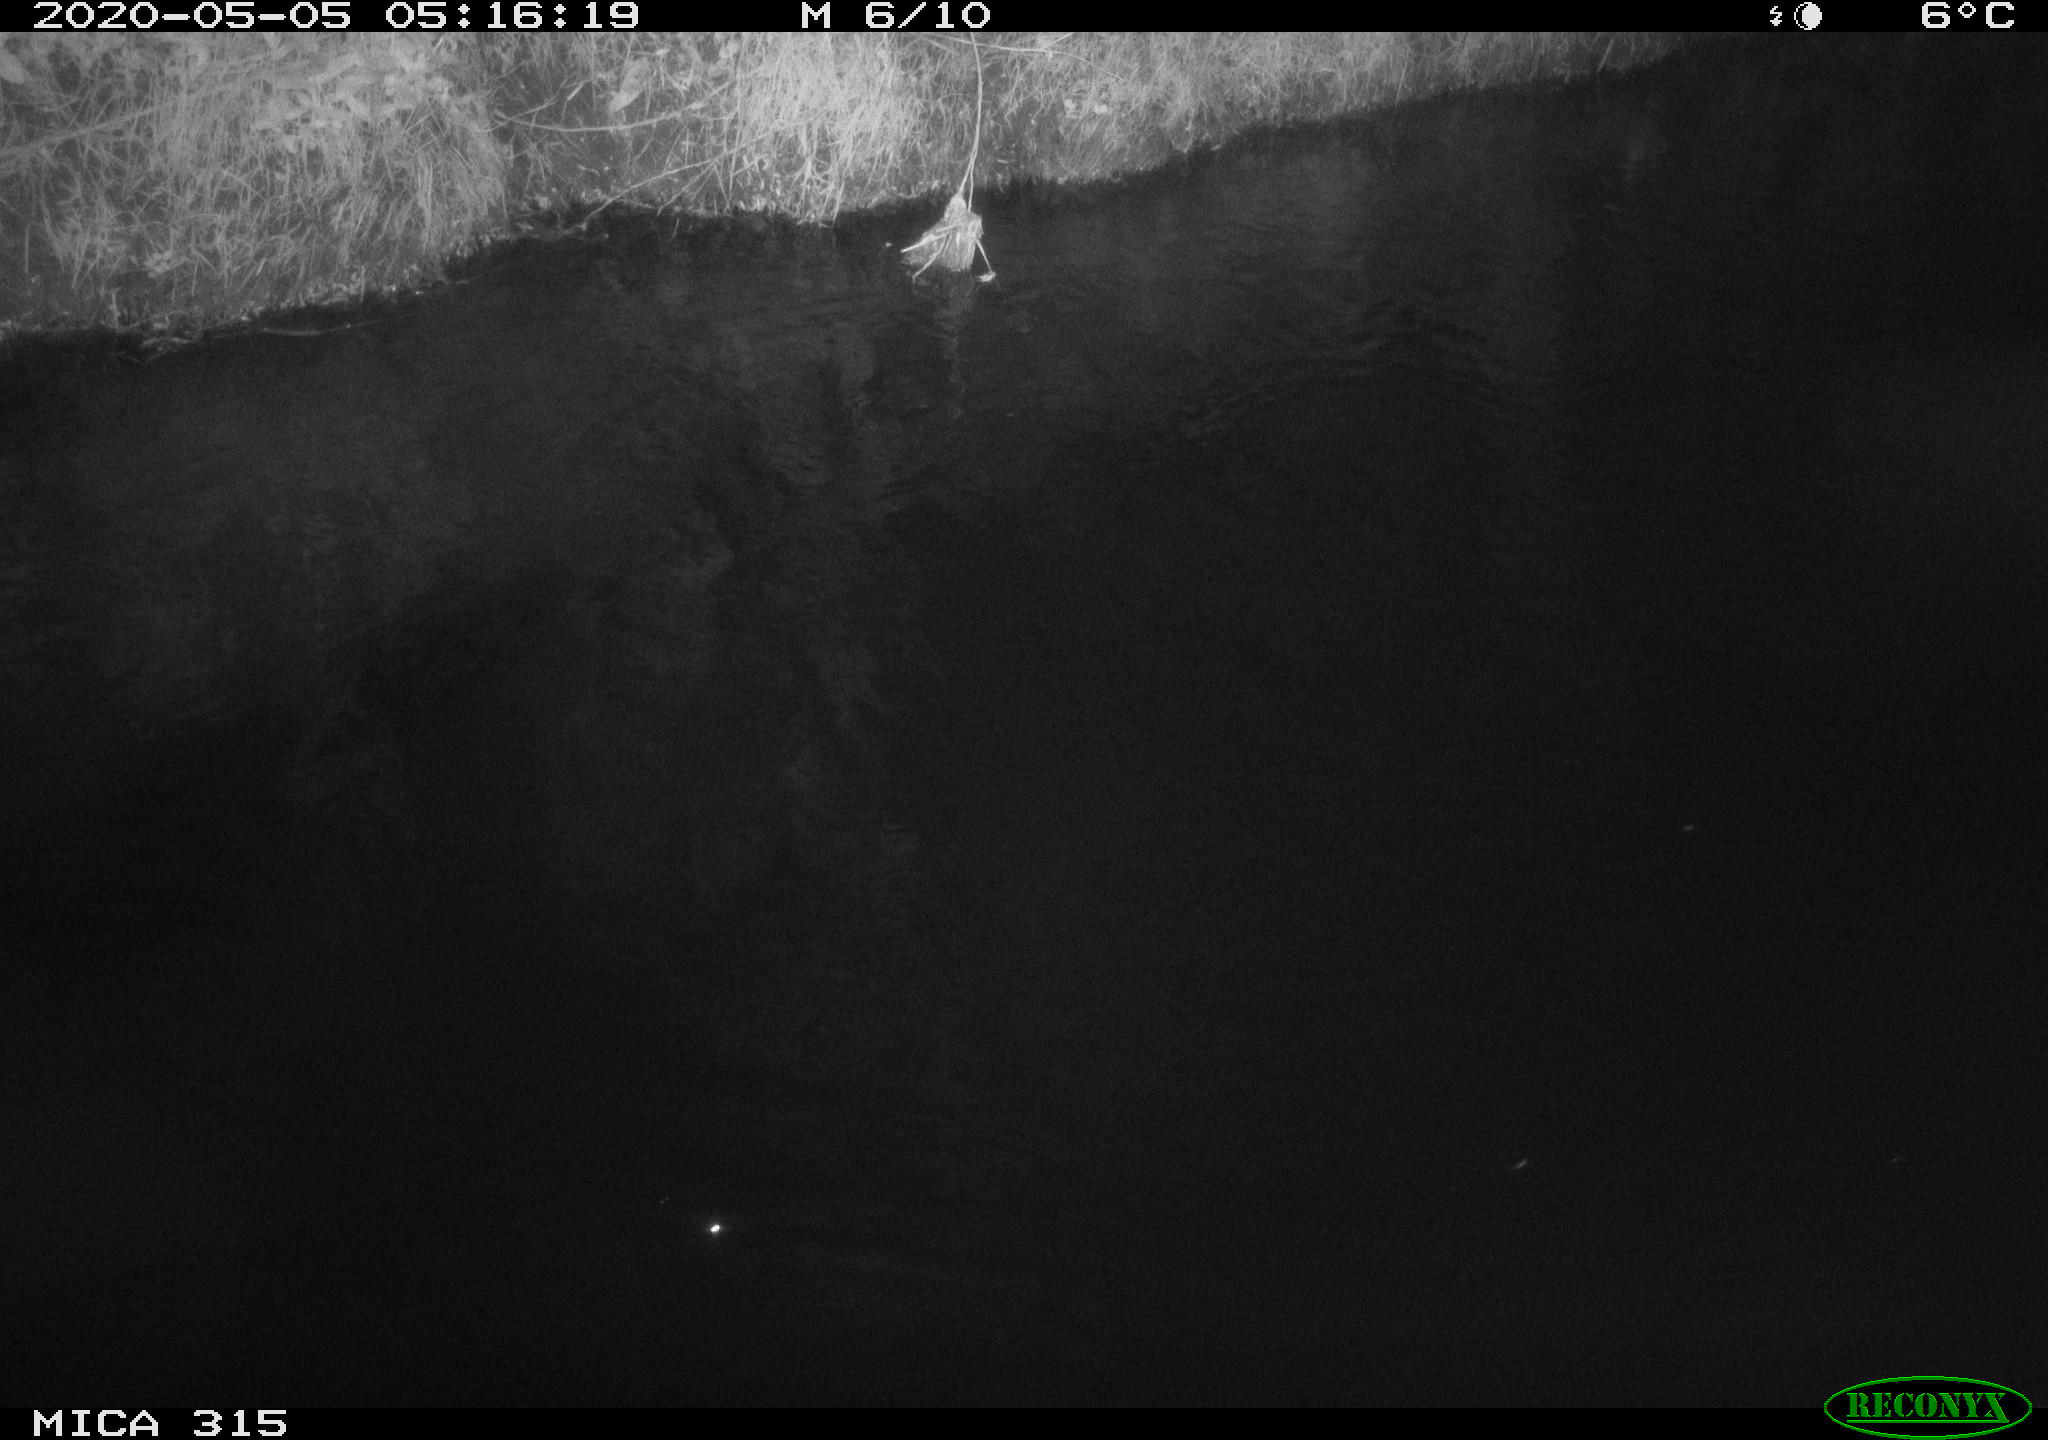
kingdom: Animalia
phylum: Chordata
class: Aves
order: Anseriformes
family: Anatidae
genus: Anas
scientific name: Anas platyrhynchos
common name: Mallard
